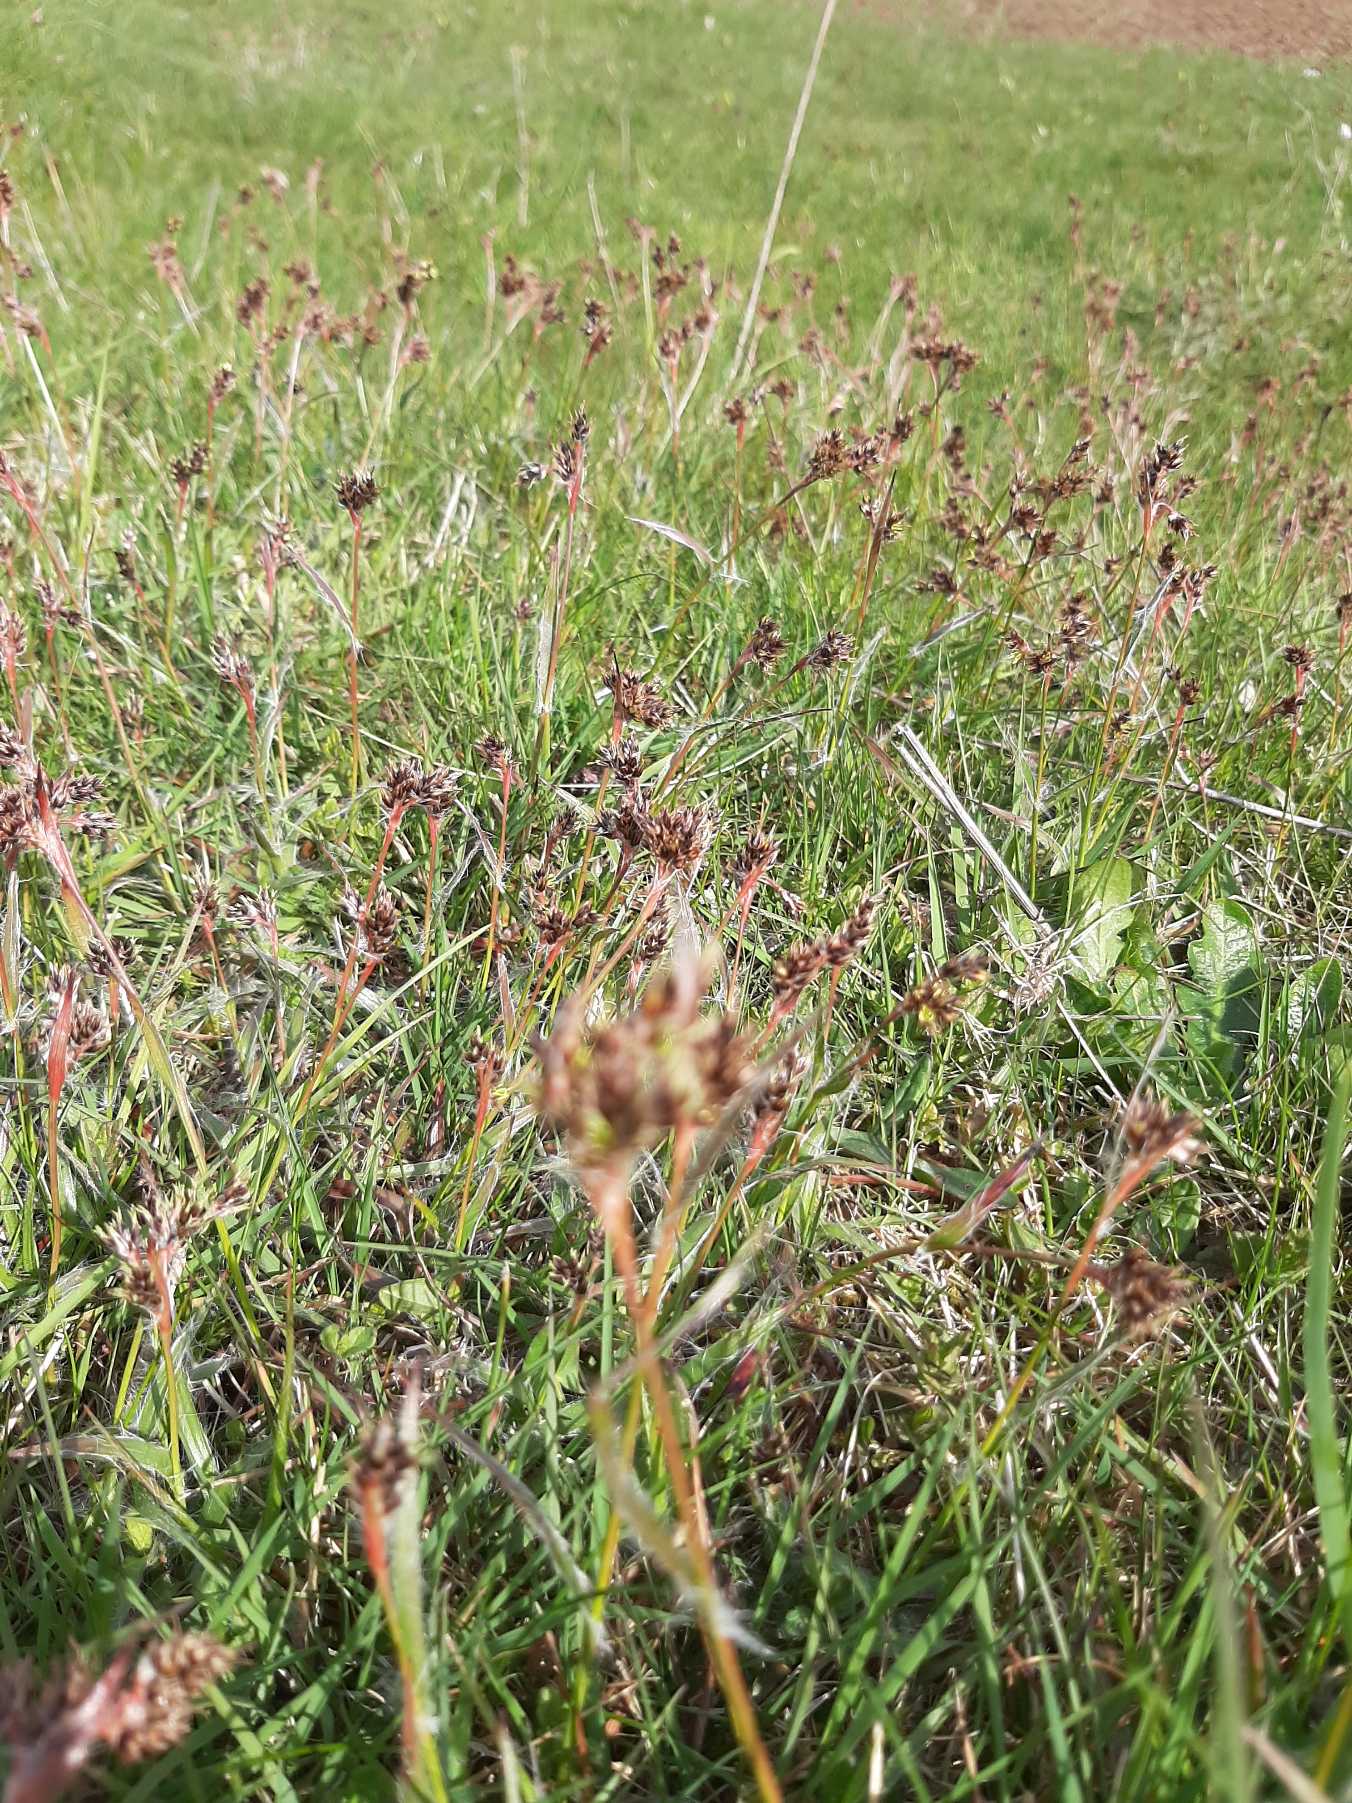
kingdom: Plantae
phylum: Tracheophyta
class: Liliopsida
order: Poales
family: Juncaceae
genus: Luzula
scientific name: Luzula campestris
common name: Mark-frytle
